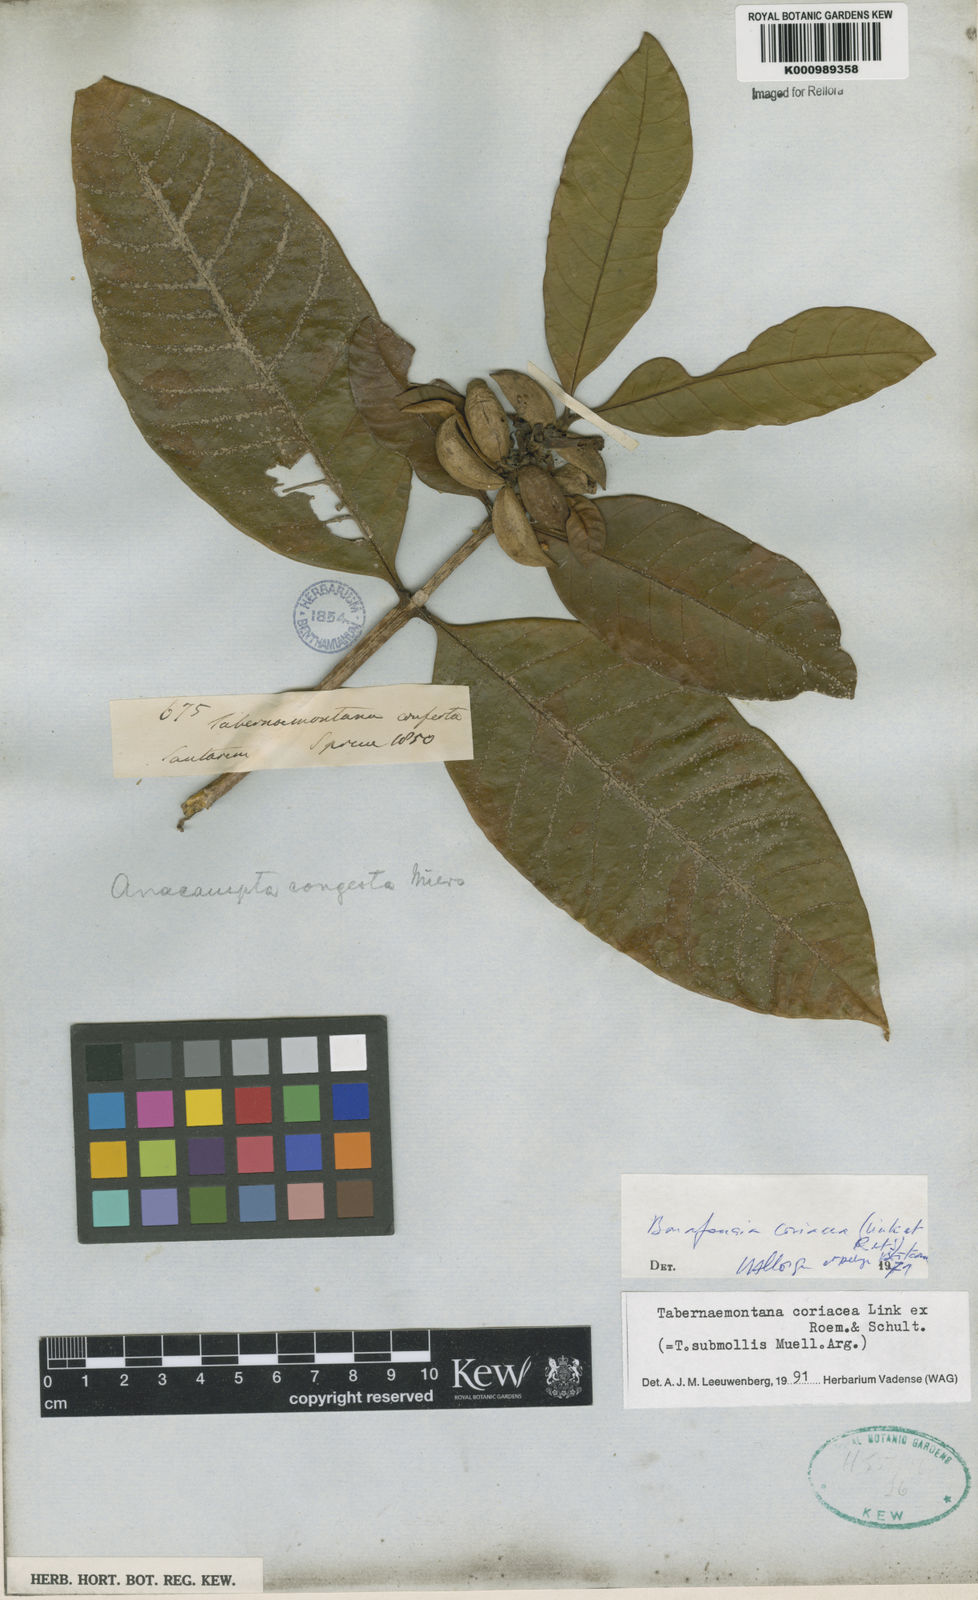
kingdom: Plantae
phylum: Tracheophyta
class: Magnoliopsida
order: Gentianales
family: Apocynaceae
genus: Tabernaemontana
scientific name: Tabernaemontana coriacea
